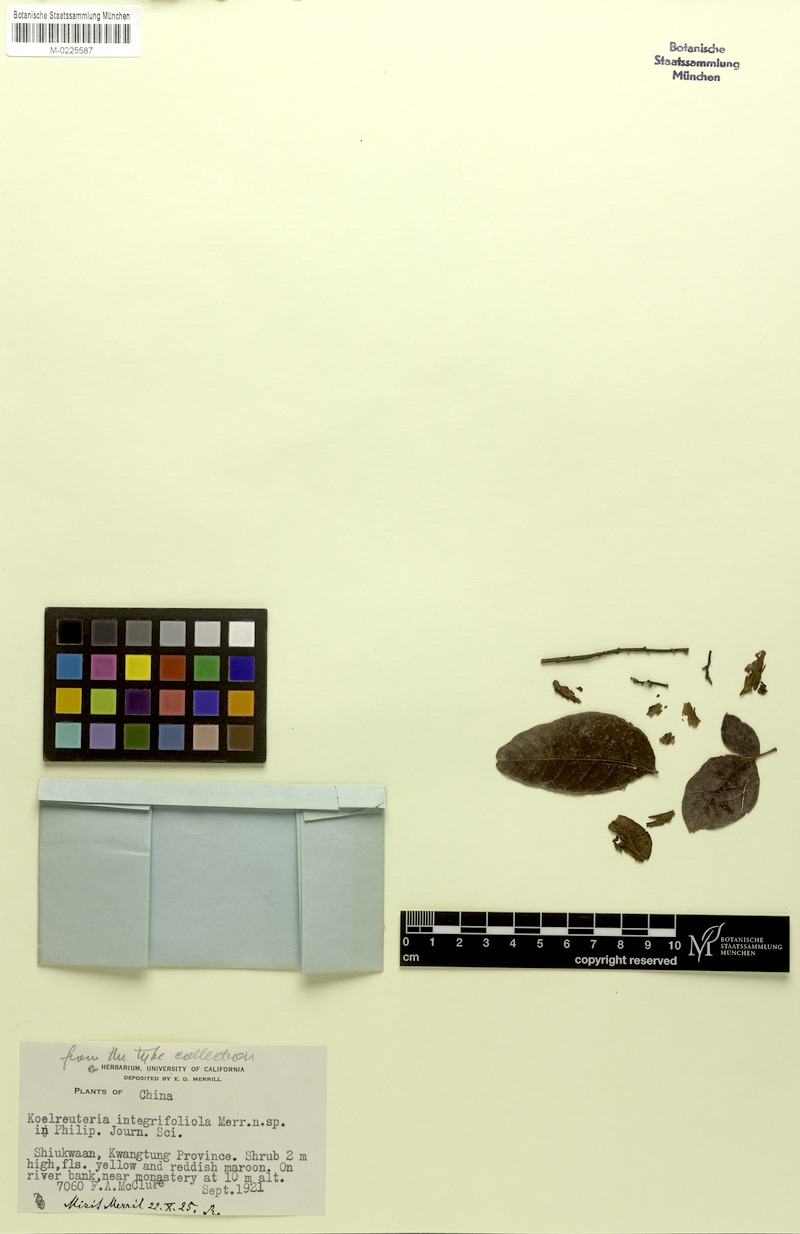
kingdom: Plantae
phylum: Tracheophyta
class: Magnoliopsida
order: Sapindales
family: Sapindaceae
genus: Koelreuteria
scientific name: Koelreuteria bipinnata
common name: Goldenrain tree
